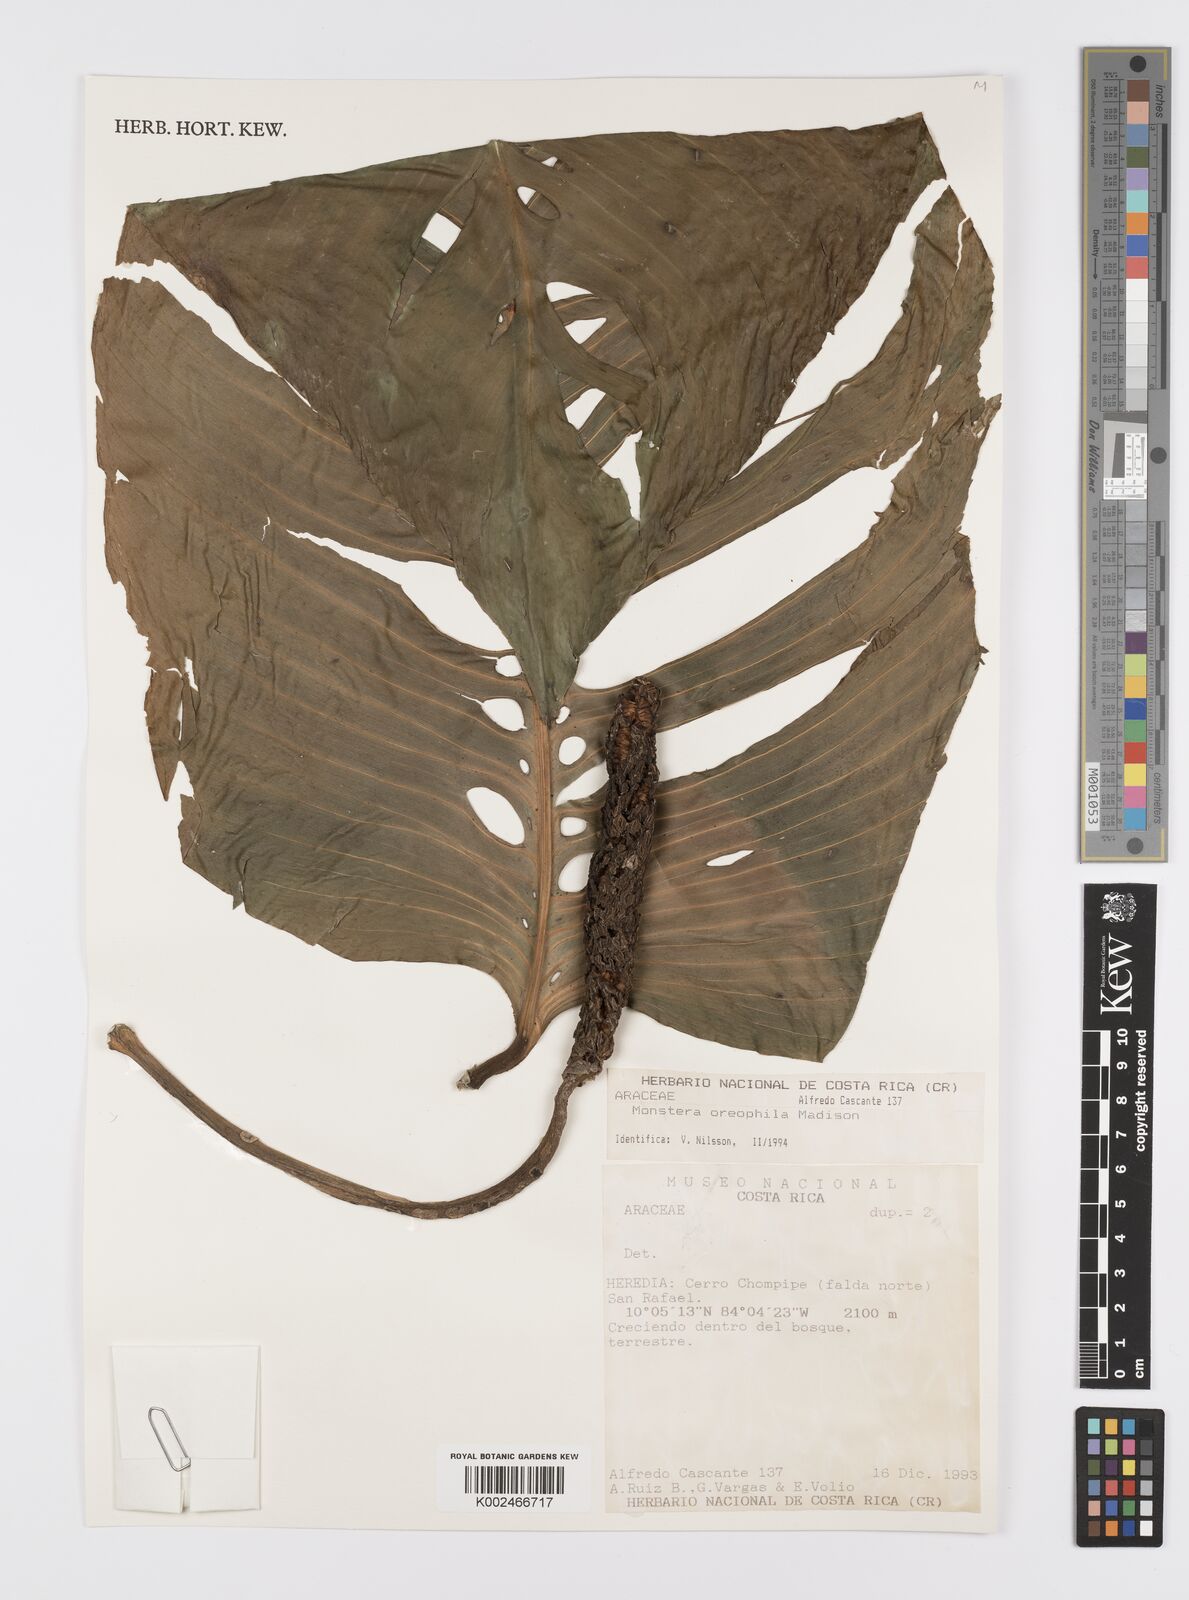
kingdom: Plantae
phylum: Tracheophyta
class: Liliopsida
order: Alismatales
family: Araceae
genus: Monstera
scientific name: Monstera oreophila
